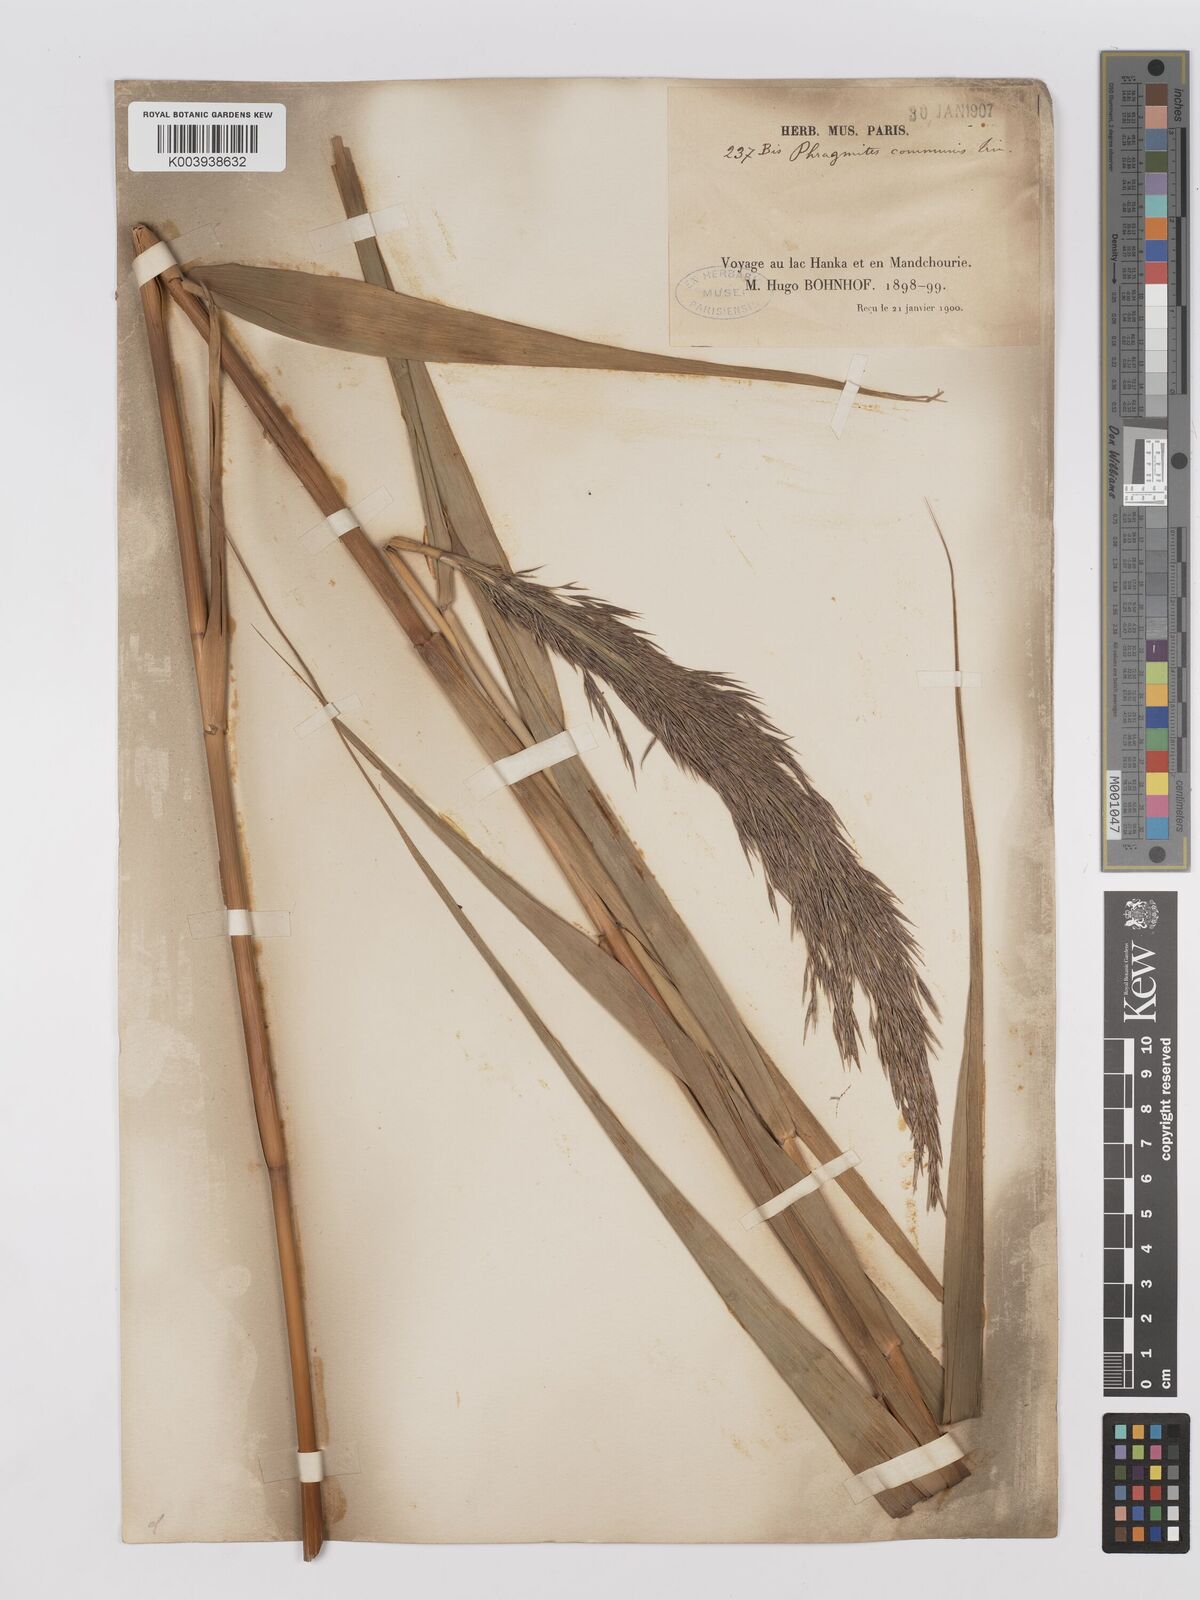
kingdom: Plantae
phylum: Tracheophyta
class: Liliopsida
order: Poales
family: Poaceae
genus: Phragmites
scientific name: Phragmites australis
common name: Common reed
